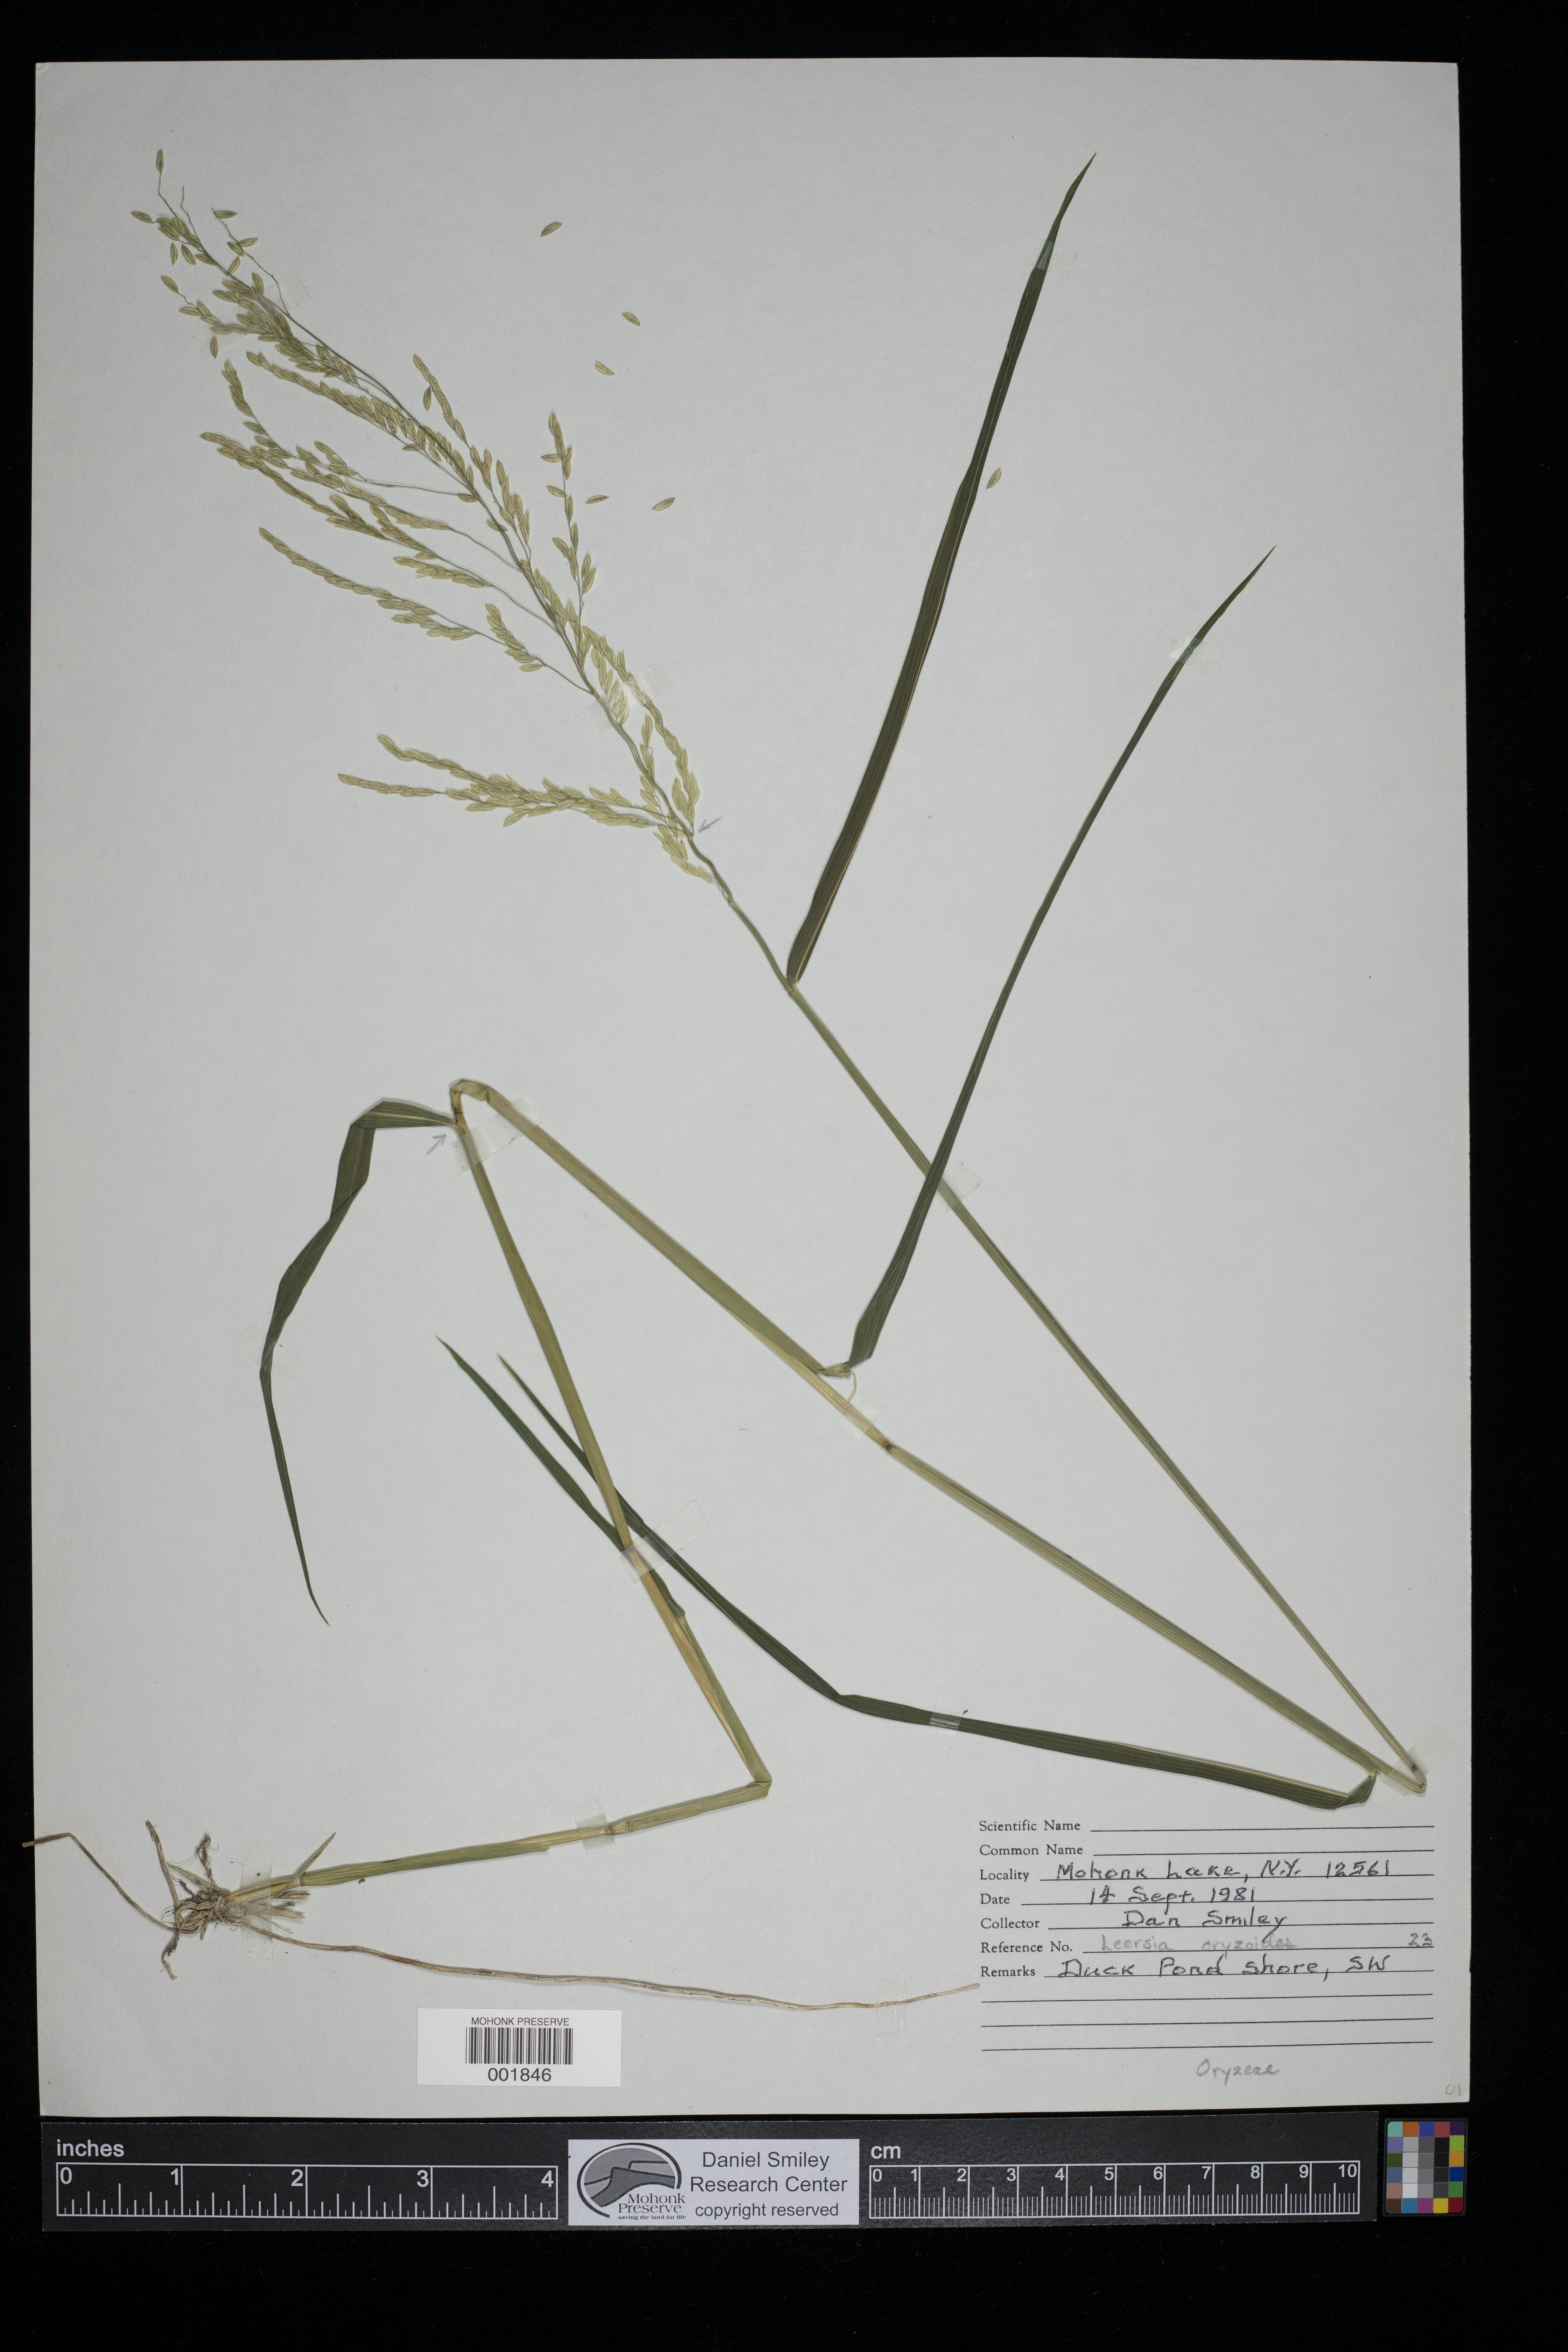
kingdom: Plantae
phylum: Tracheophyta
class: Liliopsida
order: Poales
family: Poaceae
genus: Leersia
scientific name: Leersia oryzoides
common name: Cut-grass
